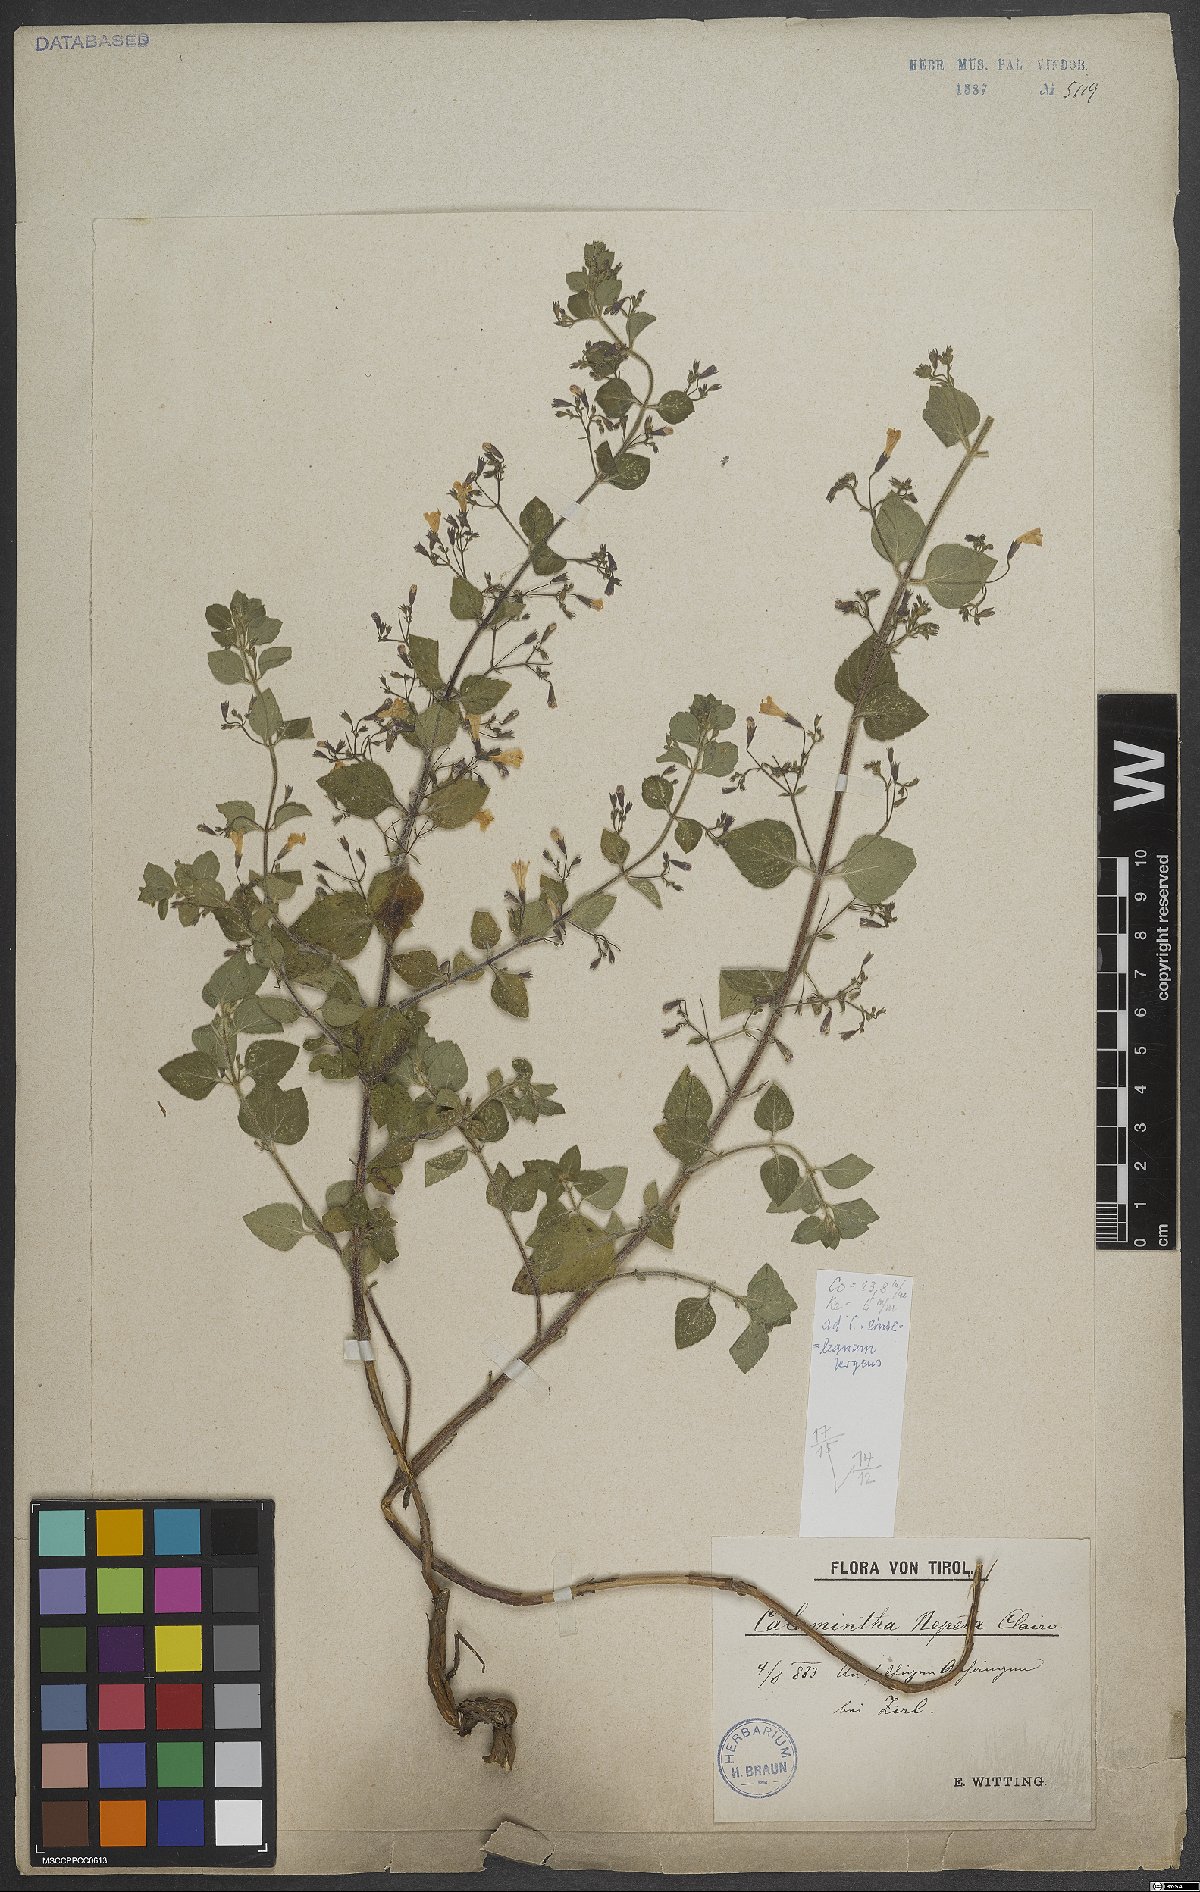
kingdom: Plantae
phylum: Tracheophyta
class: Magnoliopsida
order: Lamiales
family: Lamiaceae
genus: Clinopodium
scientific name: Clinopodium nepeta
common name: Lesser calamint
